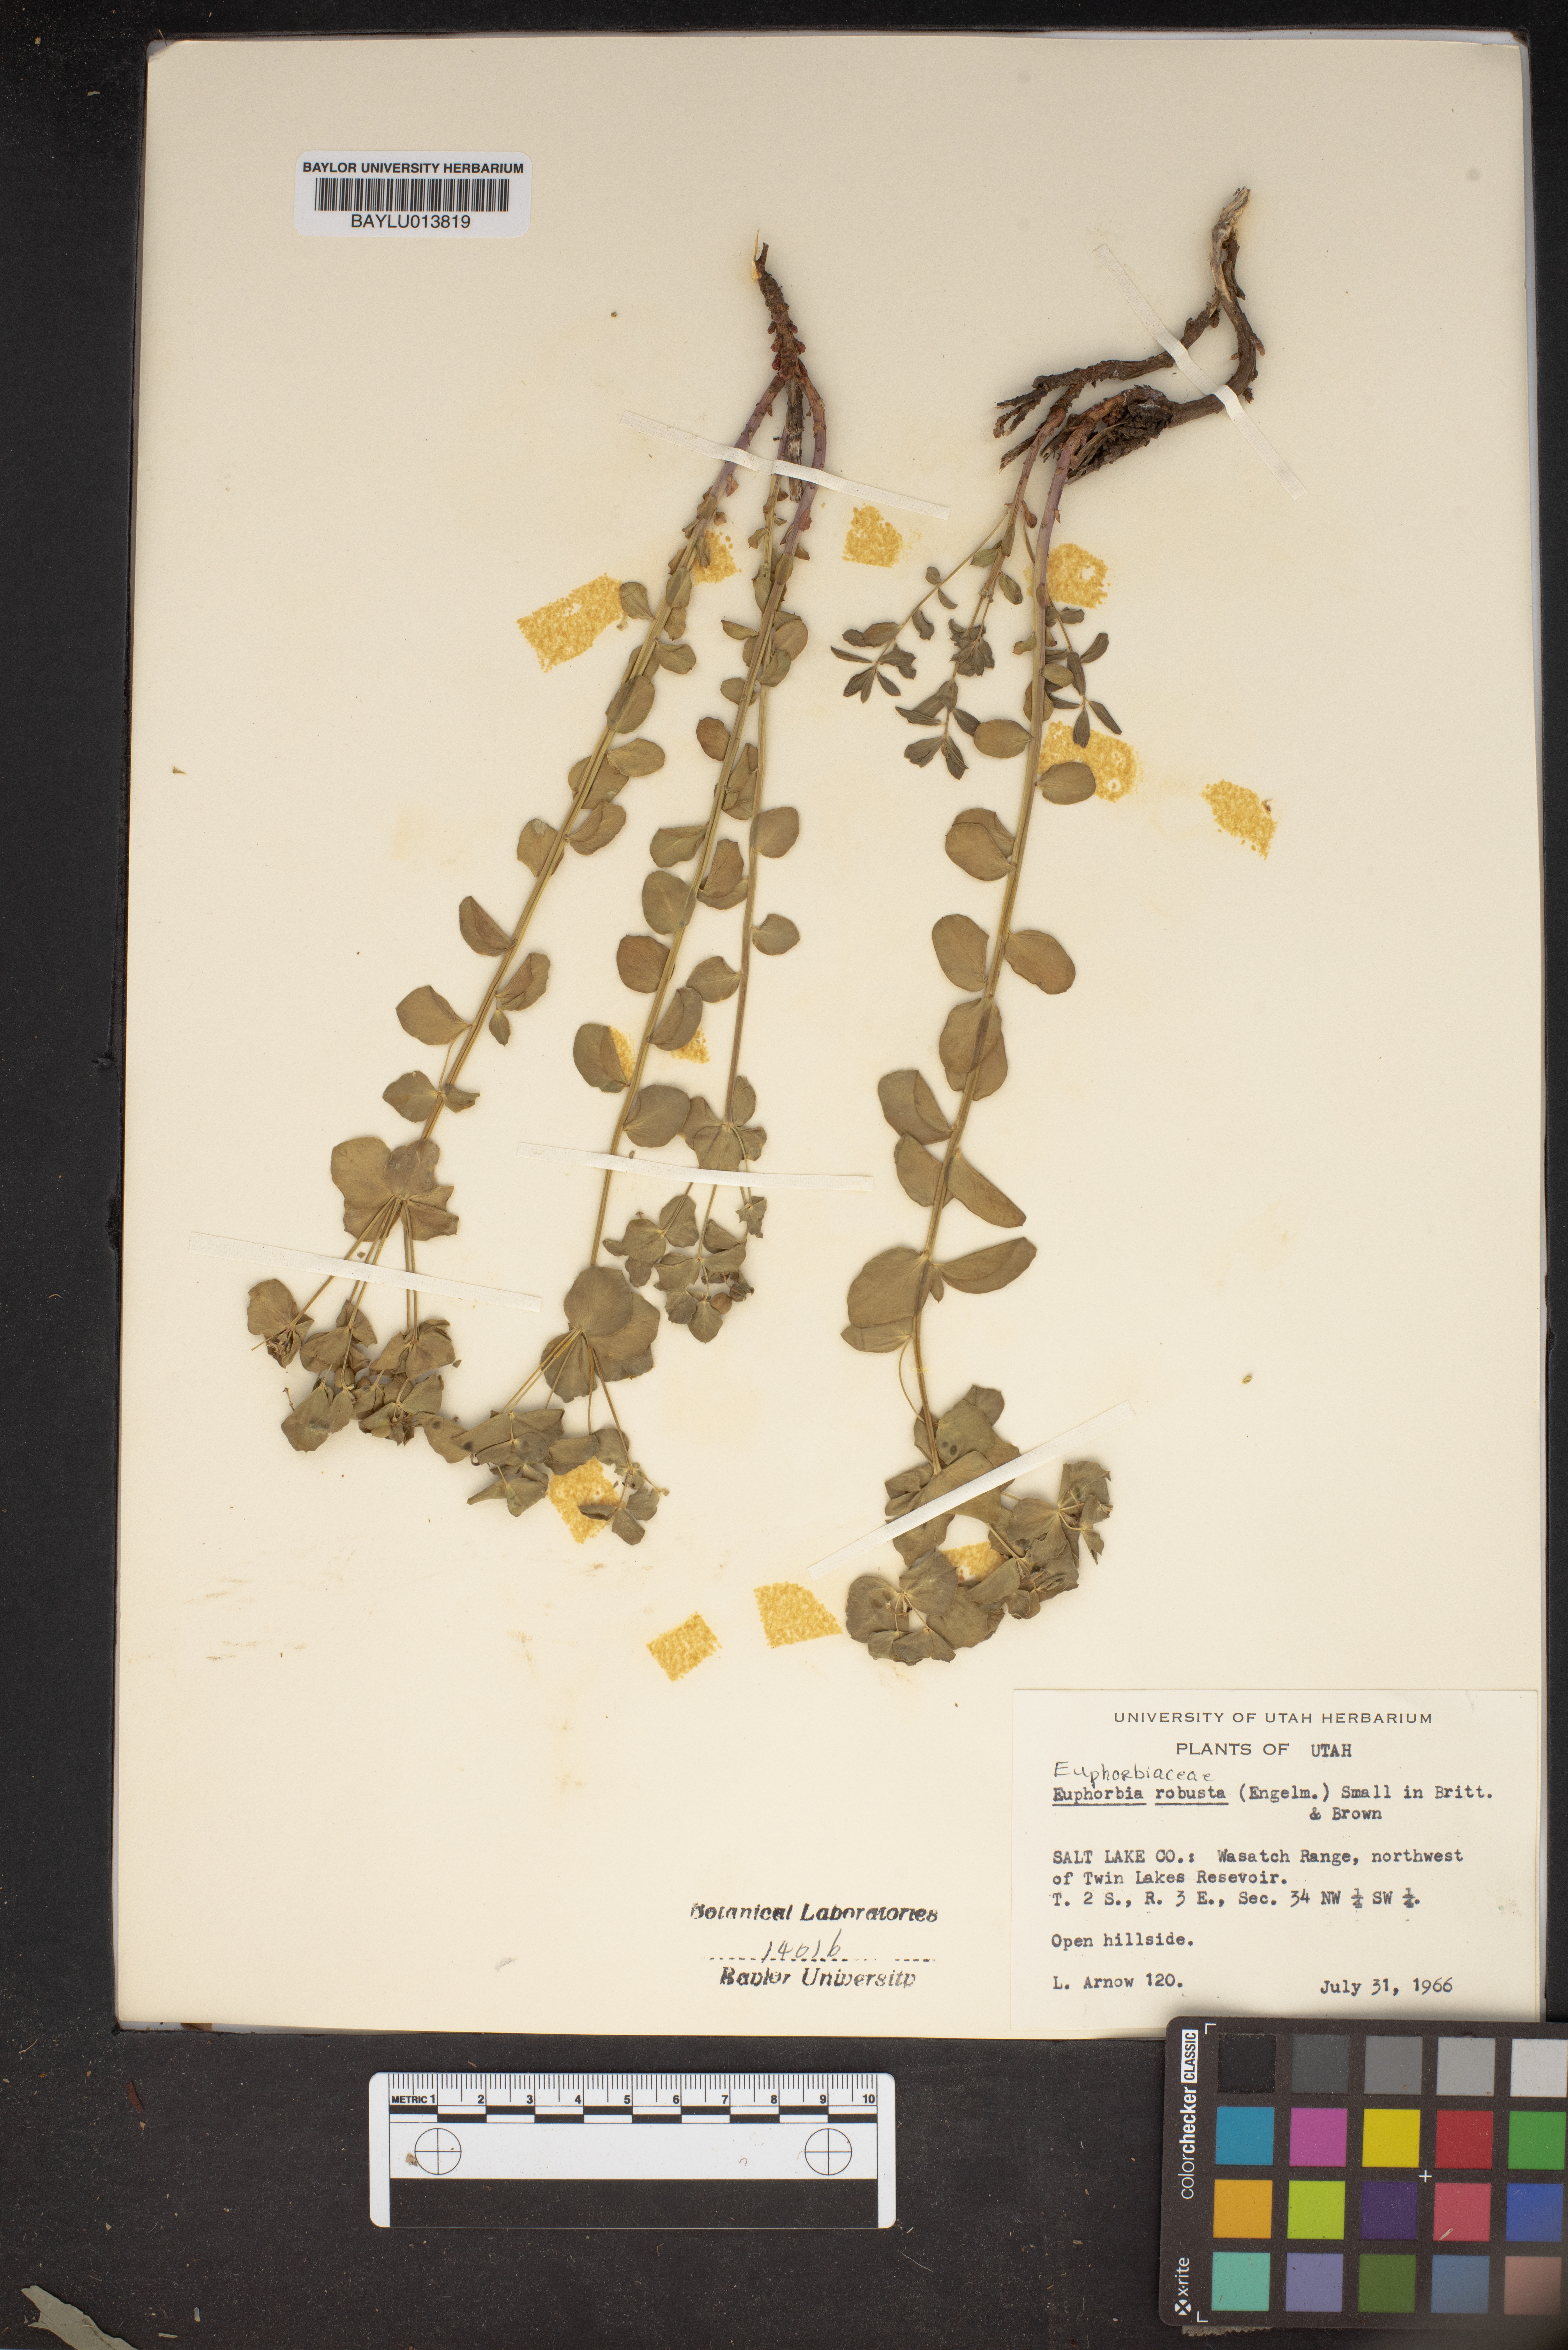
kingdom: Plantae
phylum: Tracheophyta
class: Magnoliopsida
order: Malpighiales
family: Euphorbiaceae
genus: Euphorbia
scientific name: Euphorbia brachycera
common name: Shorthorn spurge
